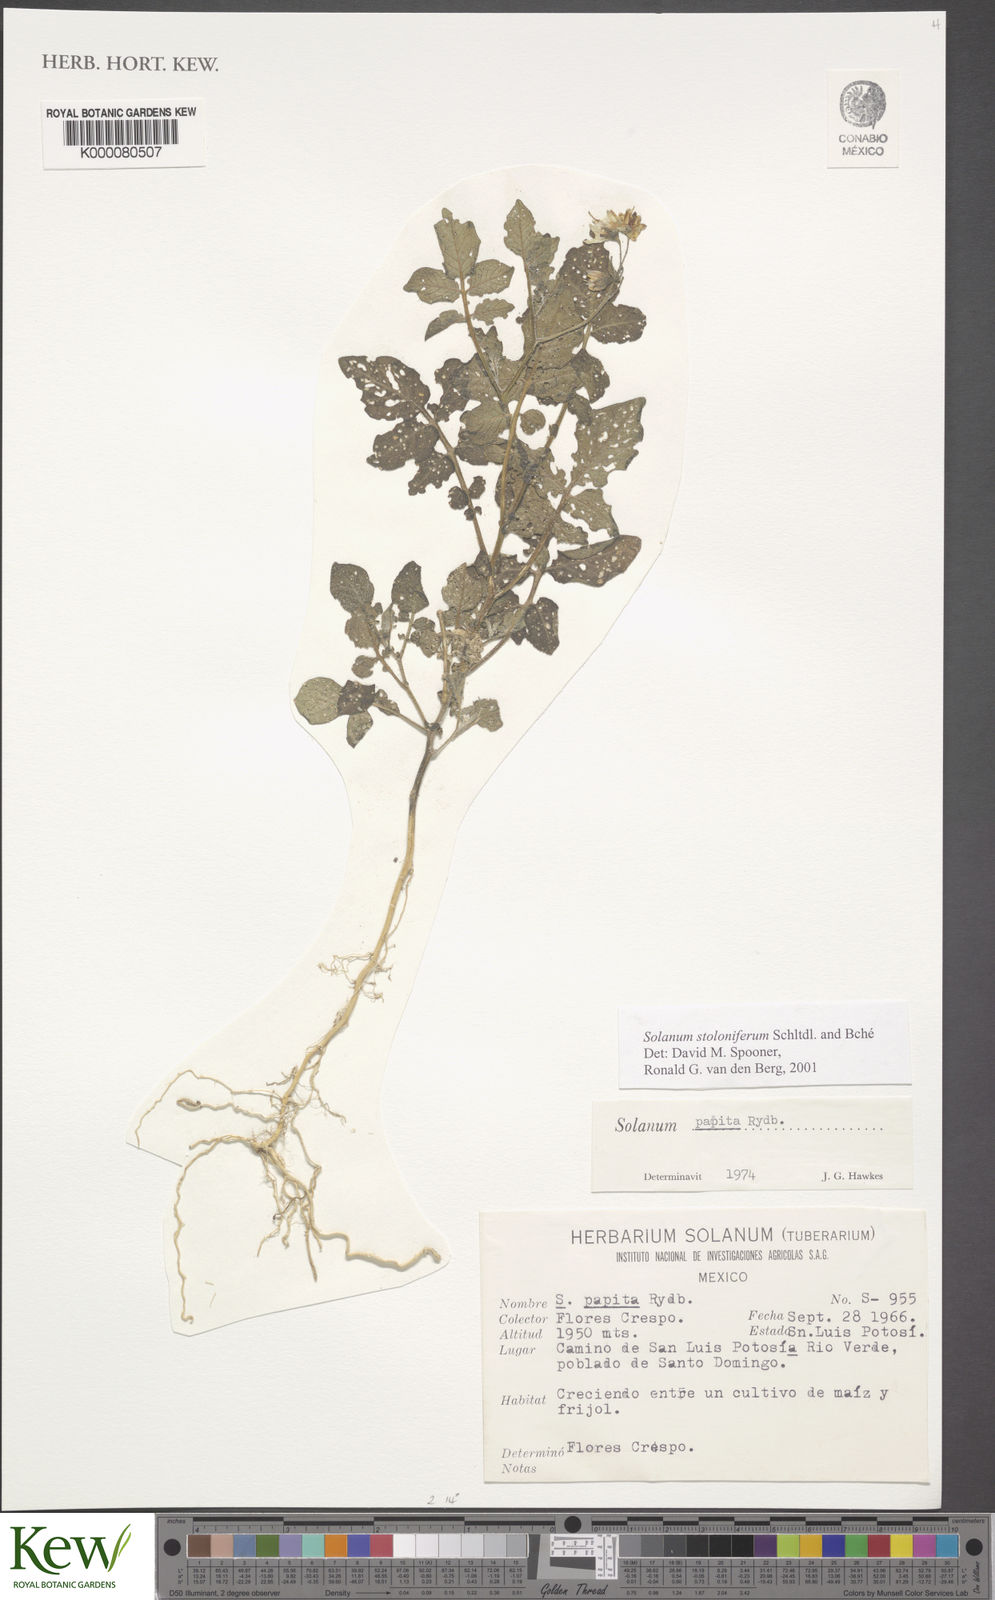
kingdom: Plantae
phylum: Tracheophyta
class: Magnoliopsida
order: Solanales
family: Solanaceae
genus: Solanum
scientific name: Solanum stoloniferum
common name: Fendler's nighshade
